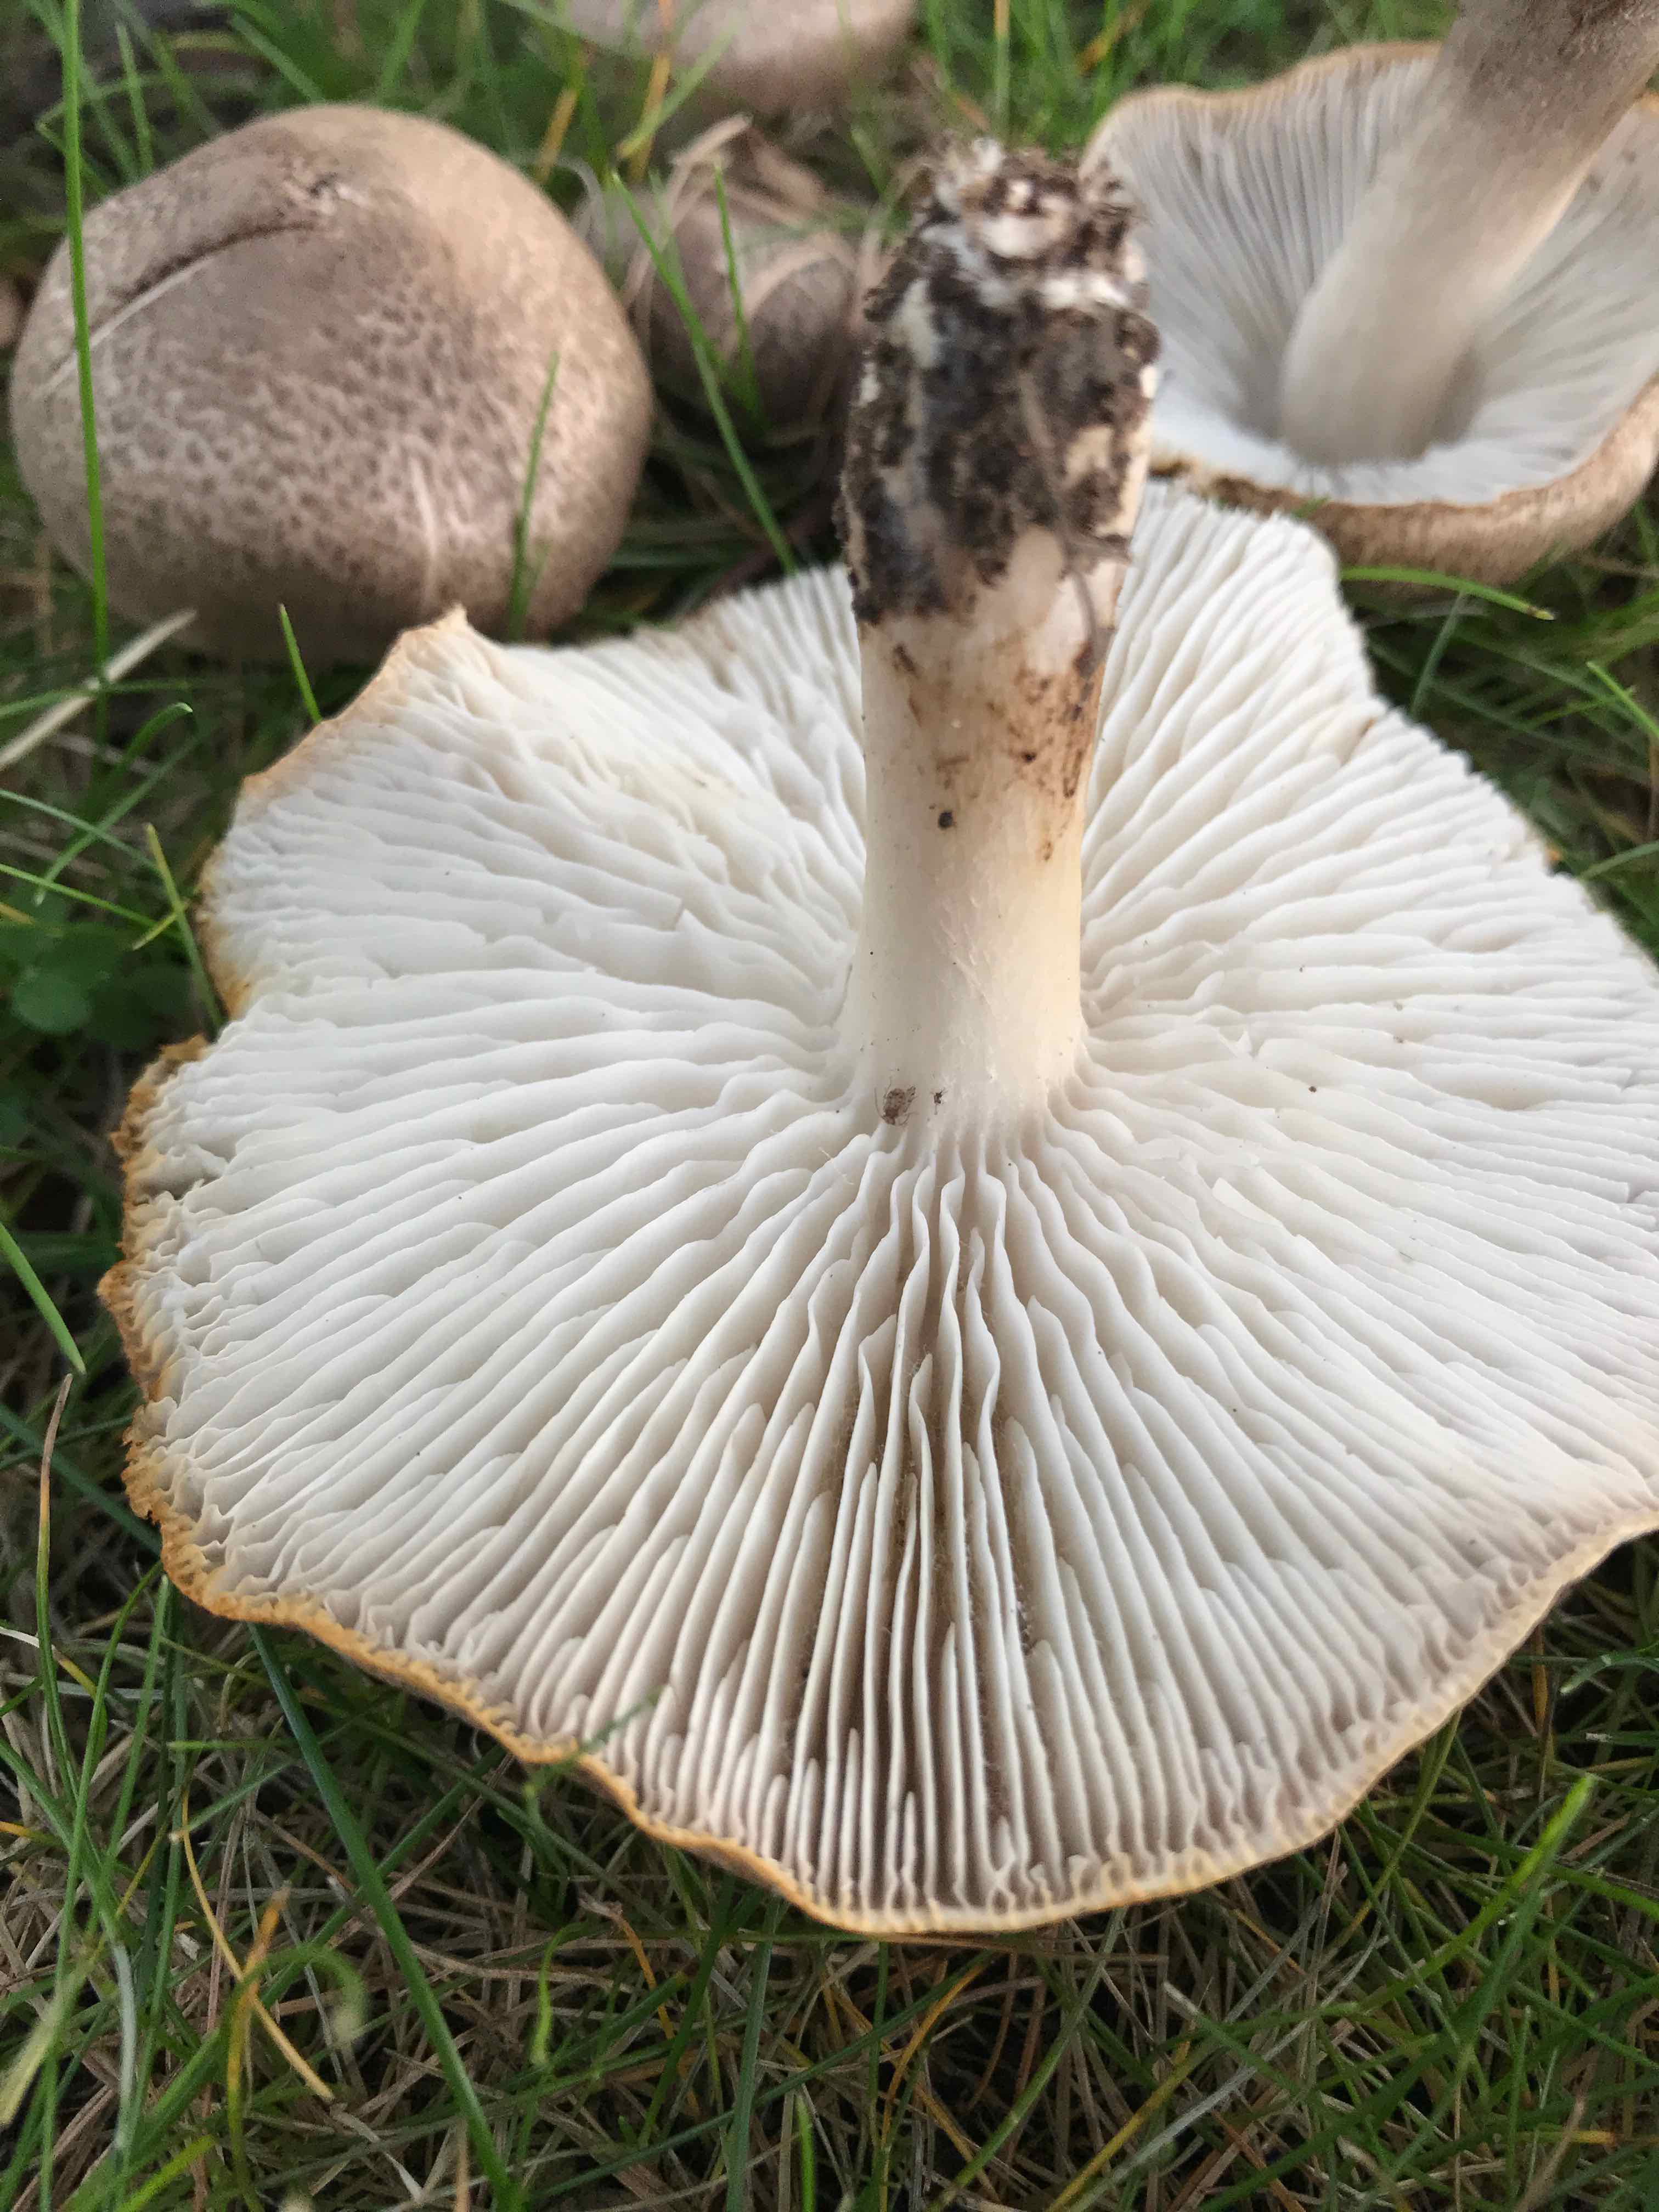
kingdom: Fungi
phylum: Basidiomycota
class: Agaricomycetes
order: Agaricales
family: Tricholomataceae
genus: Tricholoma
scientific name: Tricholoma scalpturatum
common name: gulplettet ridderhat
